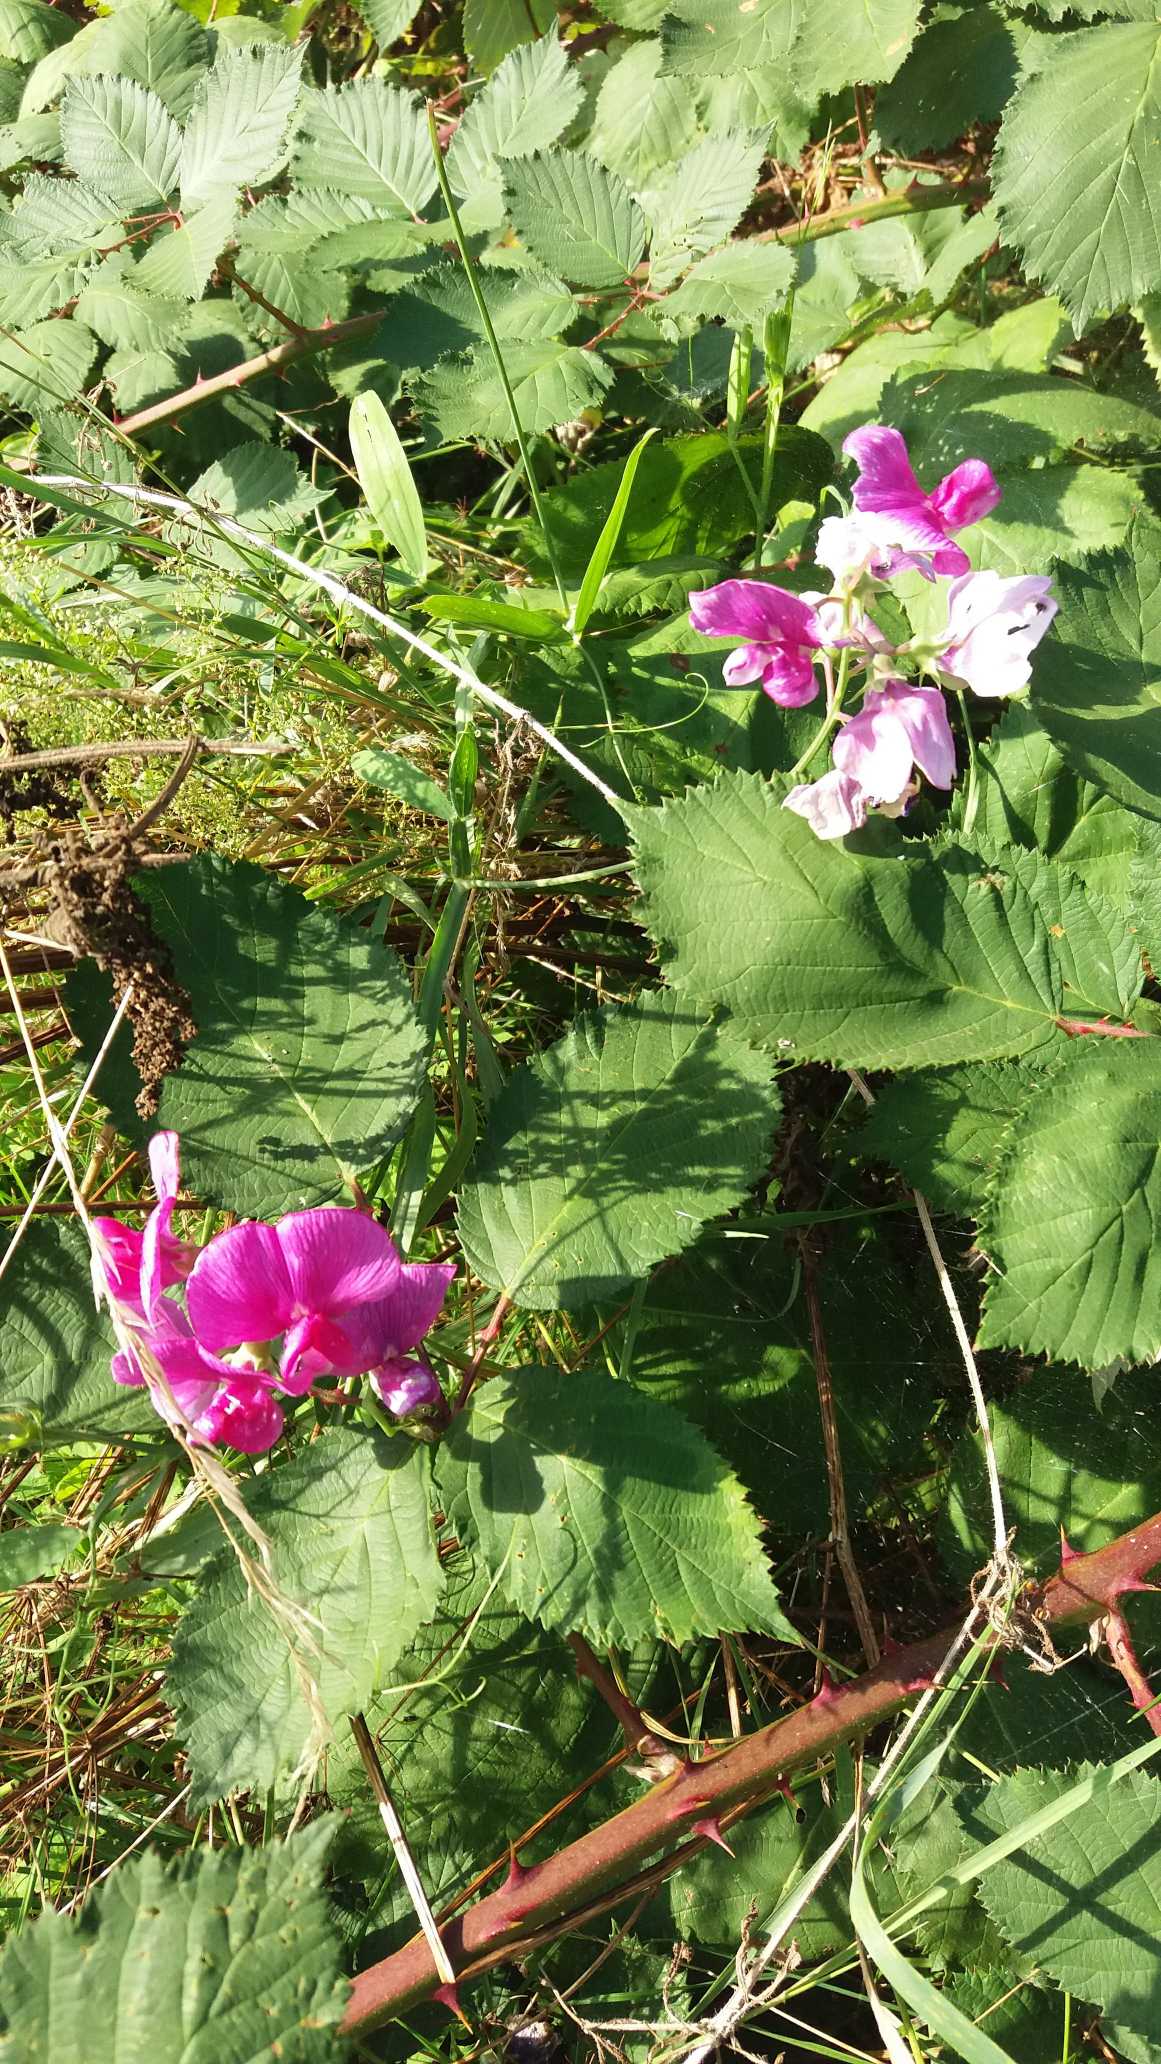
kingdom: Plantae
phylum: Tracheophyta
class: Magnoliopsida
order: Fabales
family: Fabaceae
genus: Lathyrus
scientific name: Lathyrus latifolius
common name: Flerårig ærteblomst
